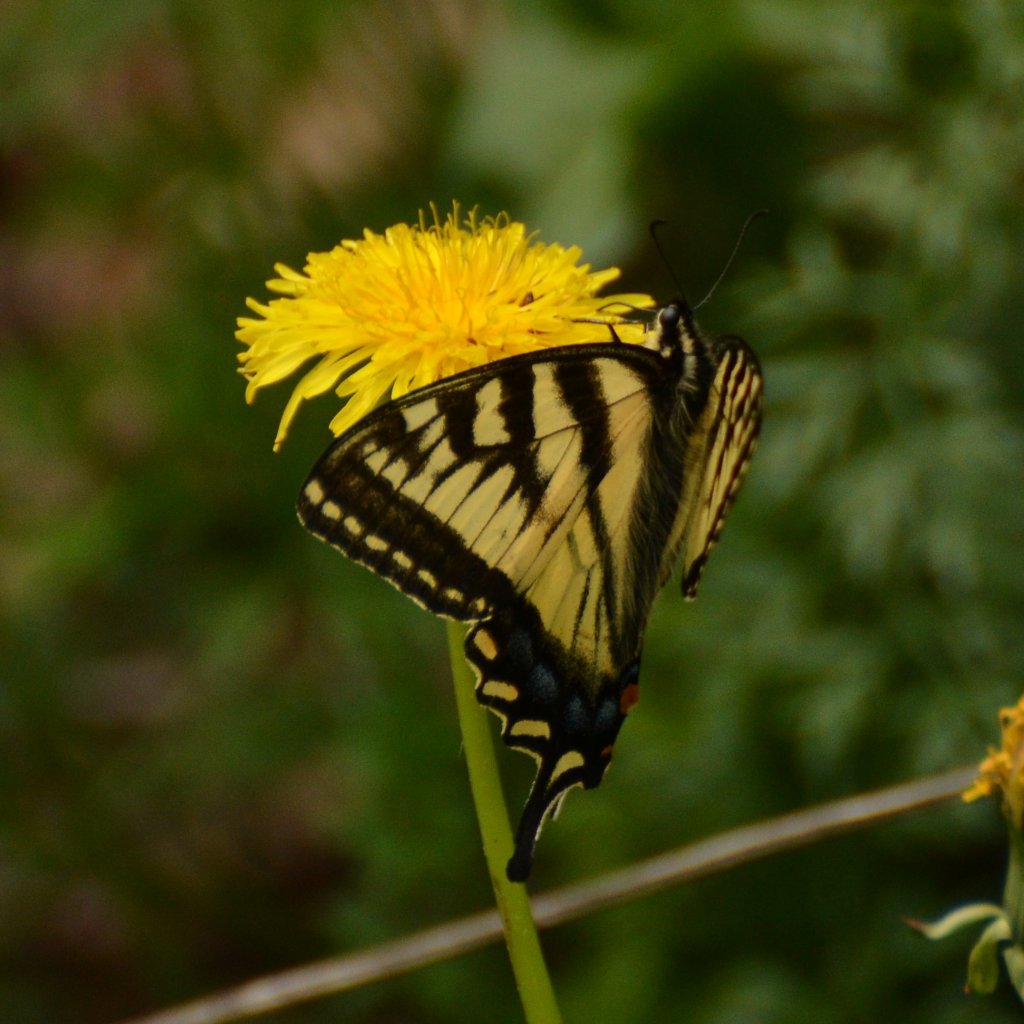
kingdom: Animalia
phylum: Arthropoda
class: Insecta
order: Lepidoptera
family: Papilionidae
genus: Pterourus
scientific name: Pterourus canadensis
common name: Canadian Tiger Swallowtail
